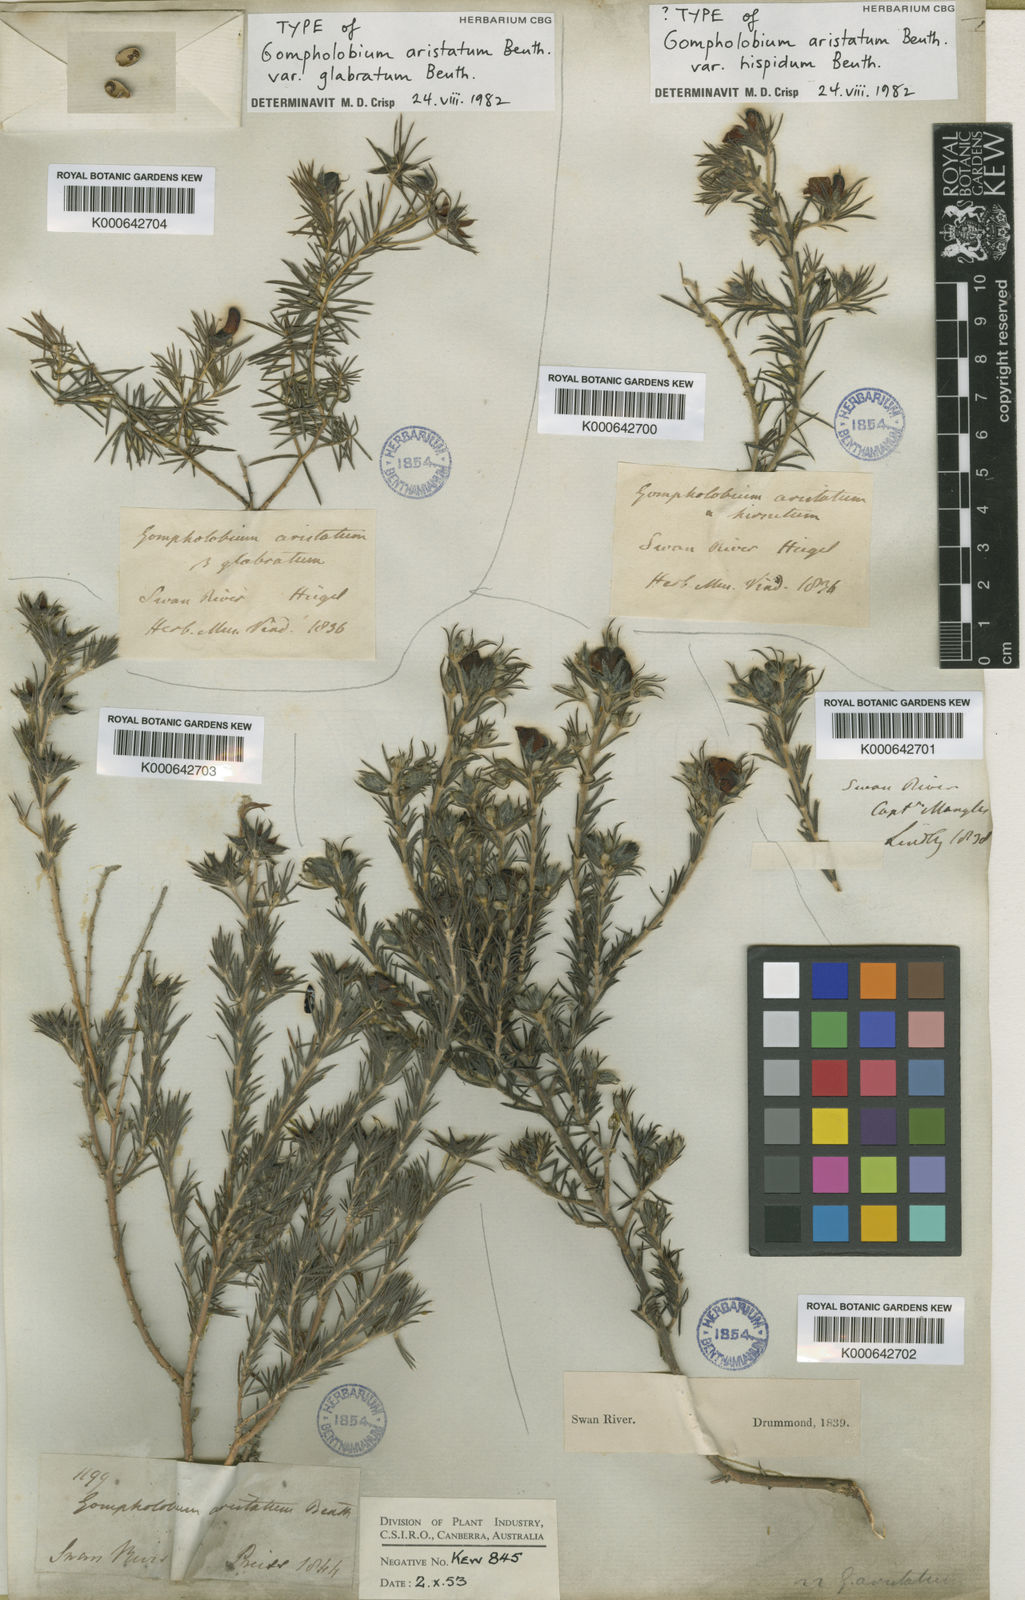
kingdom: Plantae
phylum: Tracheophyta
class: Magnoliopsida
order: Fabales
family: Fabaceae
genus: Gompholobium
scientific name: Gompholobium aristatum
